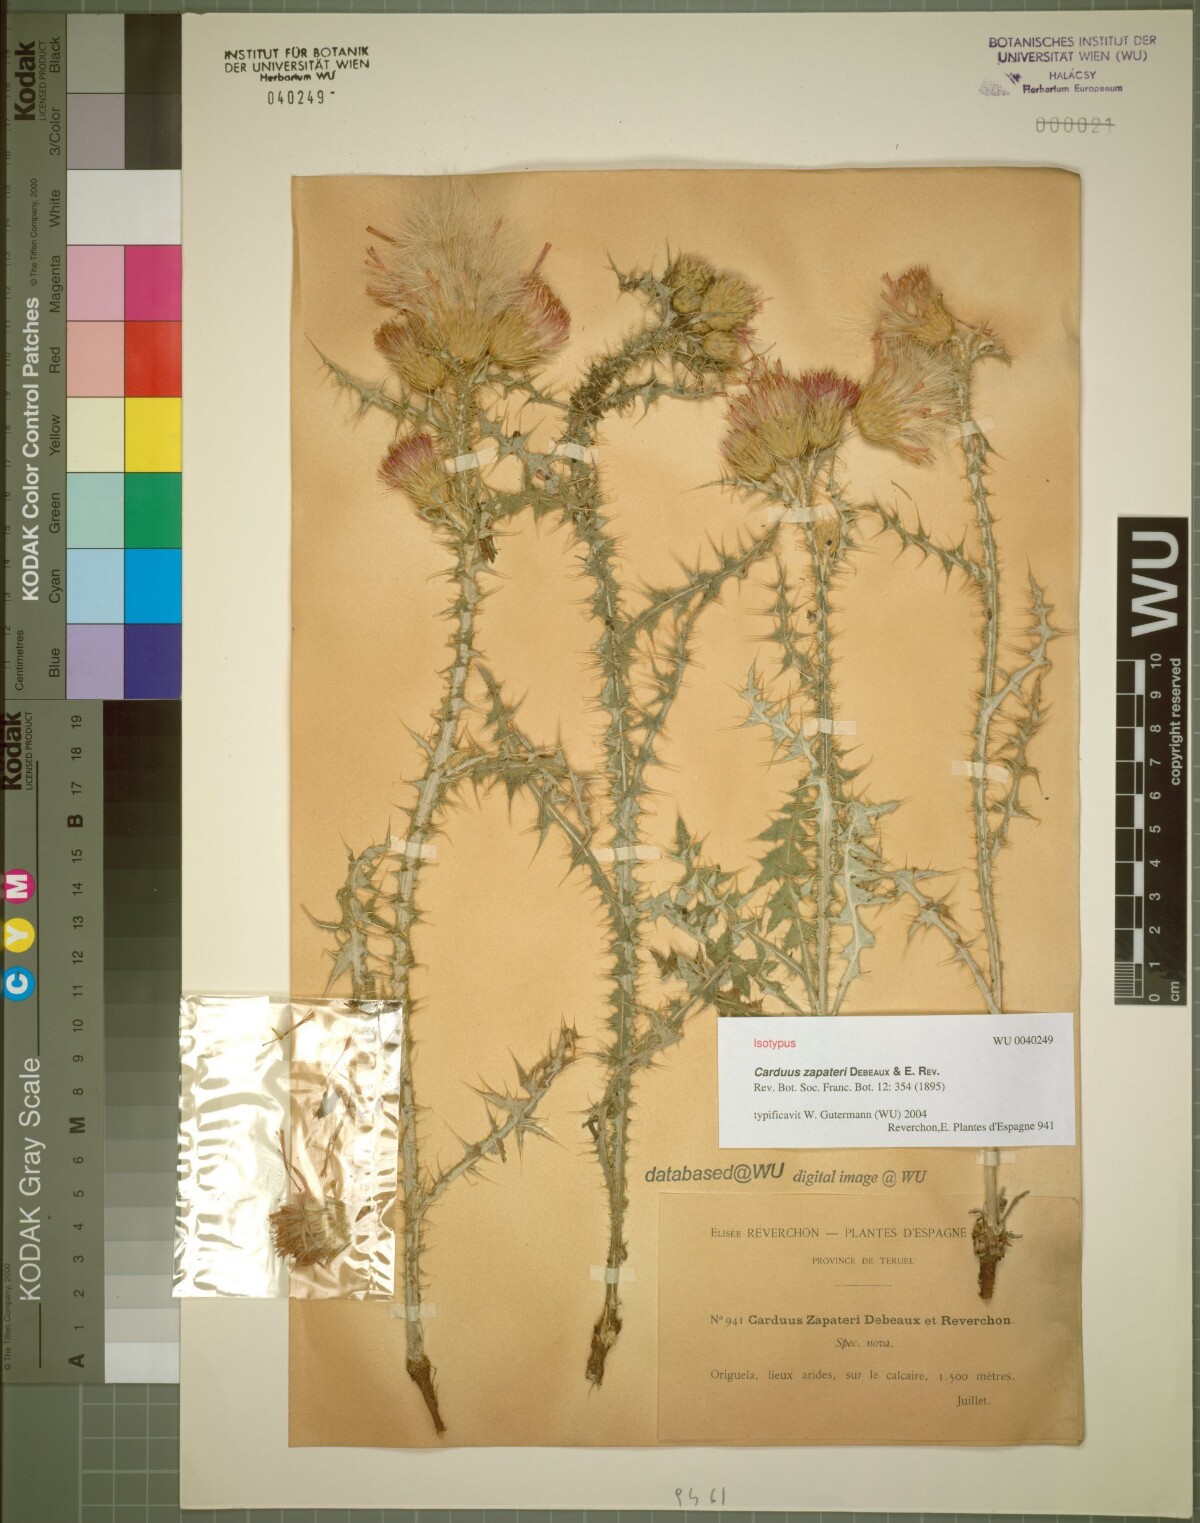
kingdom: Plantae
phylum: Tracheophyta
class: Magnoliopsida
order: Asterales
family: Asteraceae
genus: Carduus
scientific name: Carduus pycnocephalus
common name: Plymouth thistle
